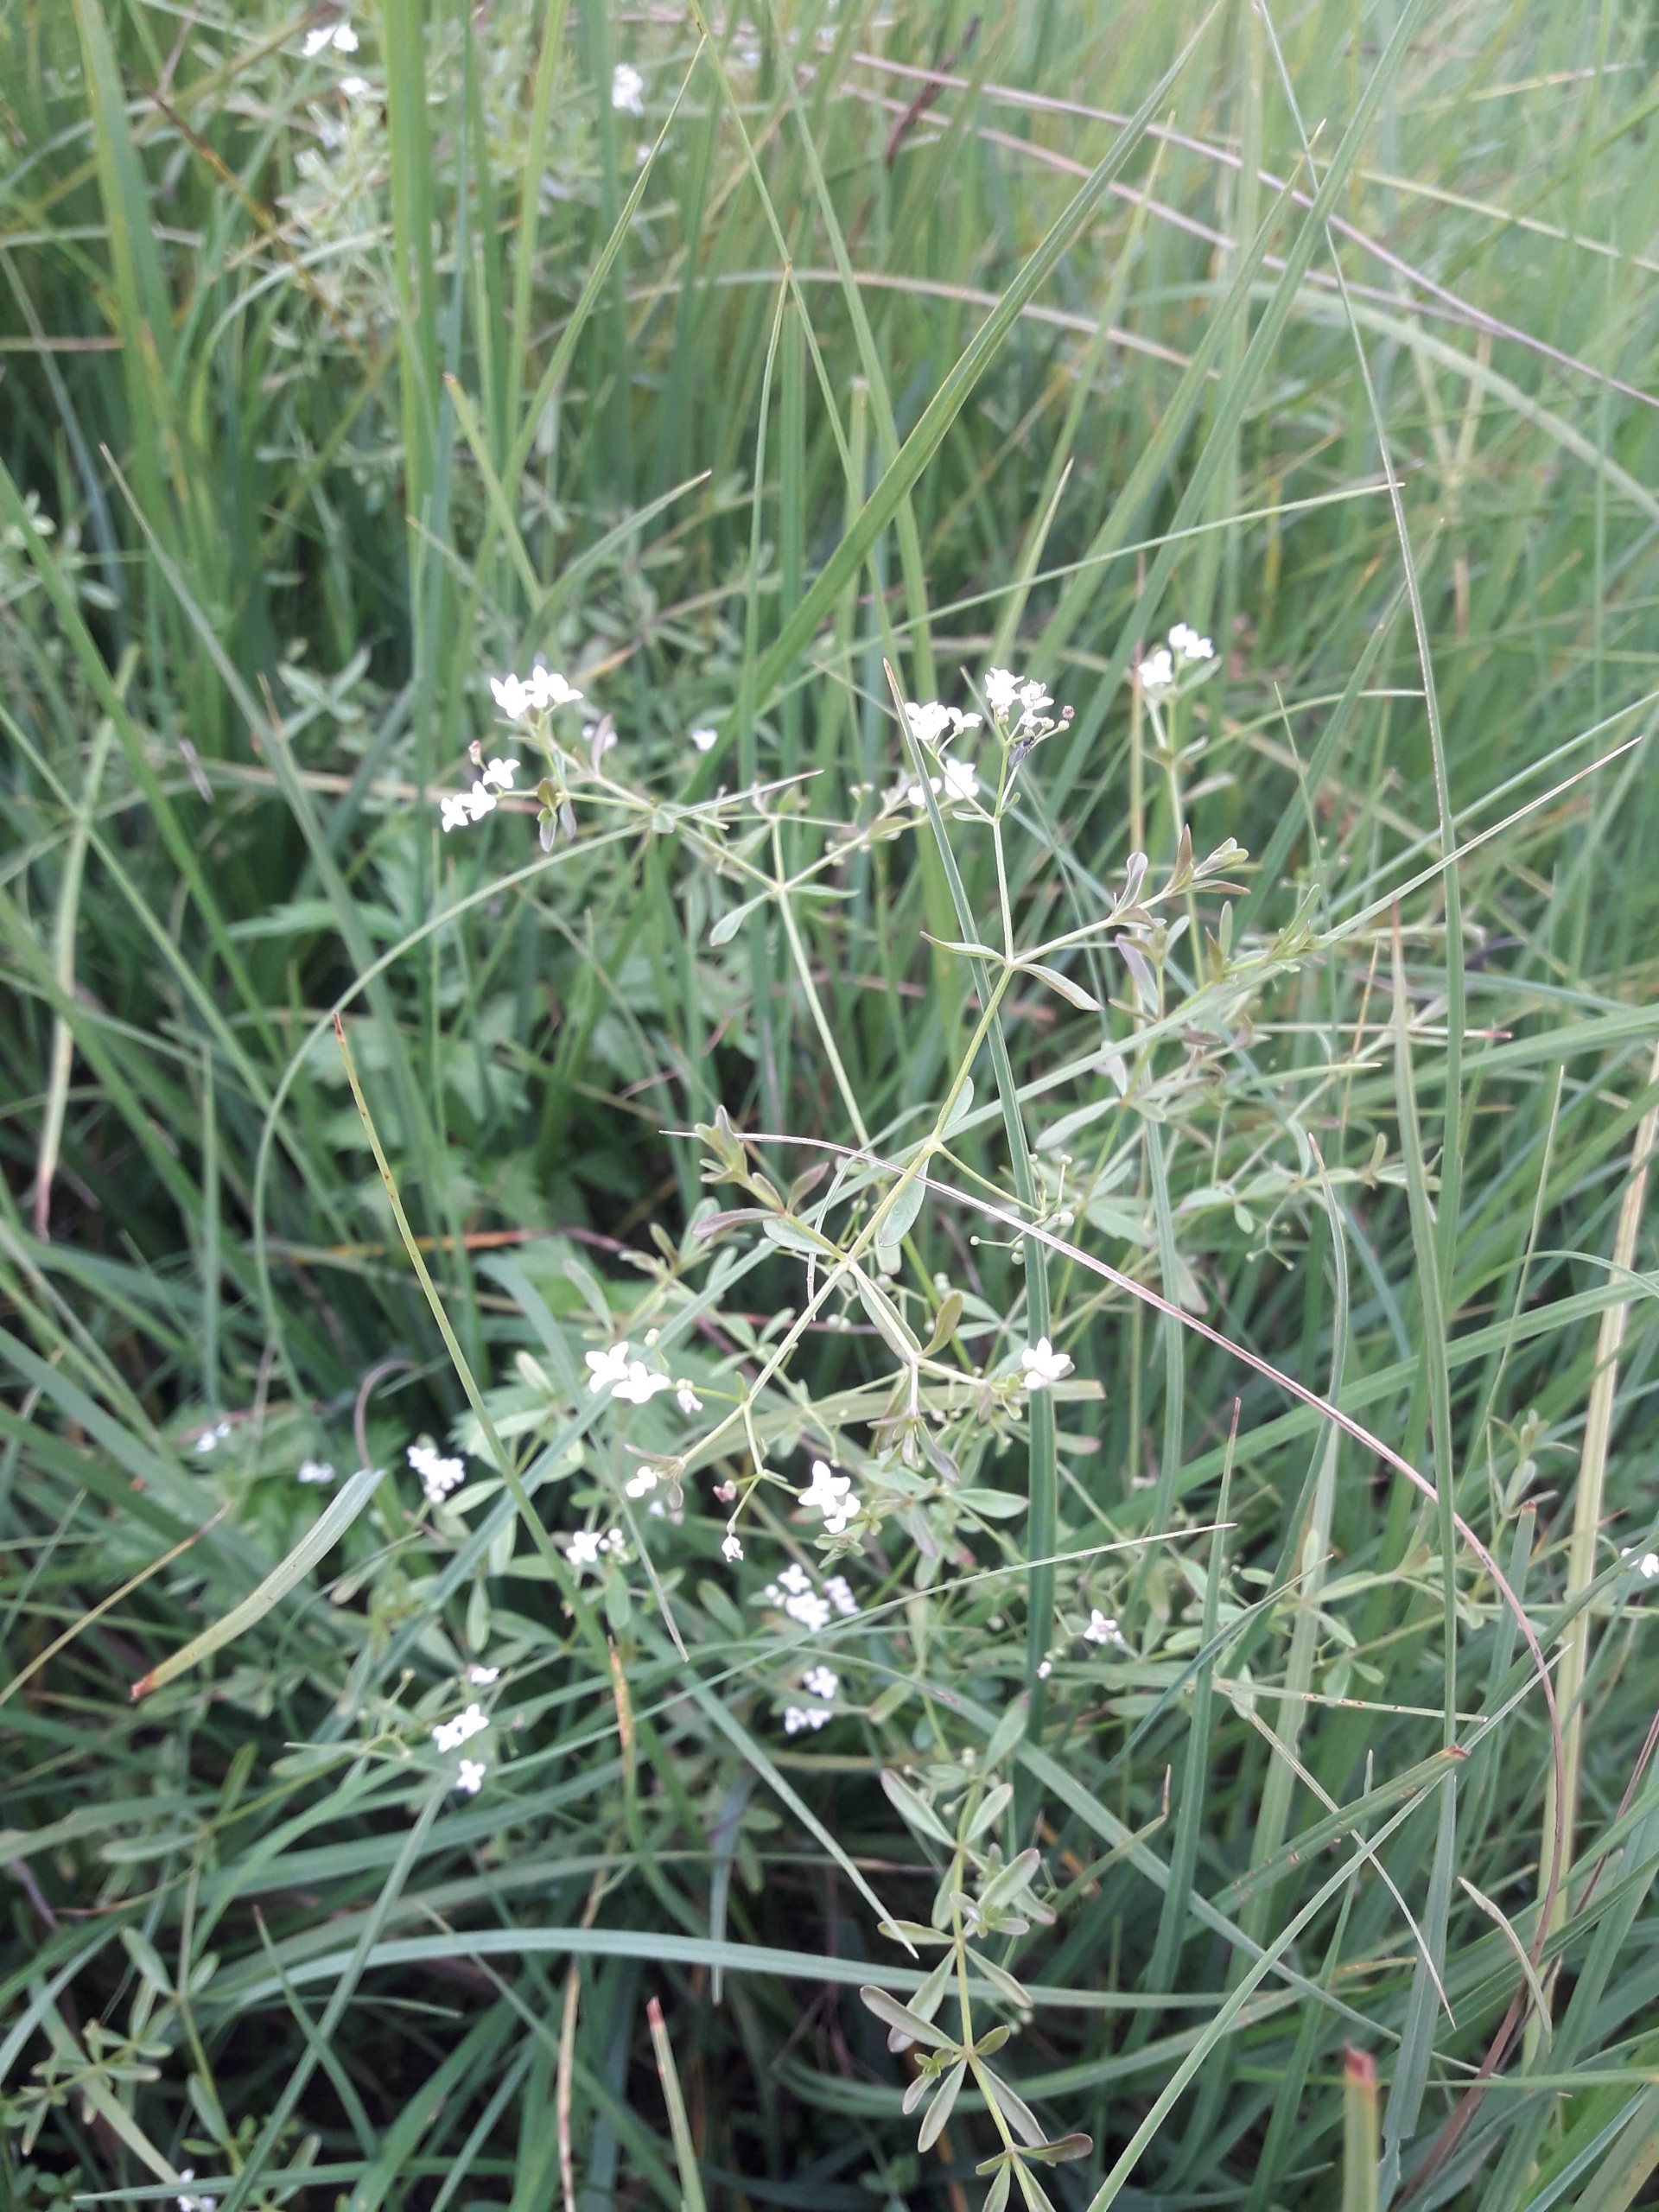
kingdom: Plantae
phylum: Tracheophyta
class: Magnoliopsida
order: Gentianales
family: Rubiaceae
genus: Galium
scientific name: Galium palustre
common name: Kær-snerre
